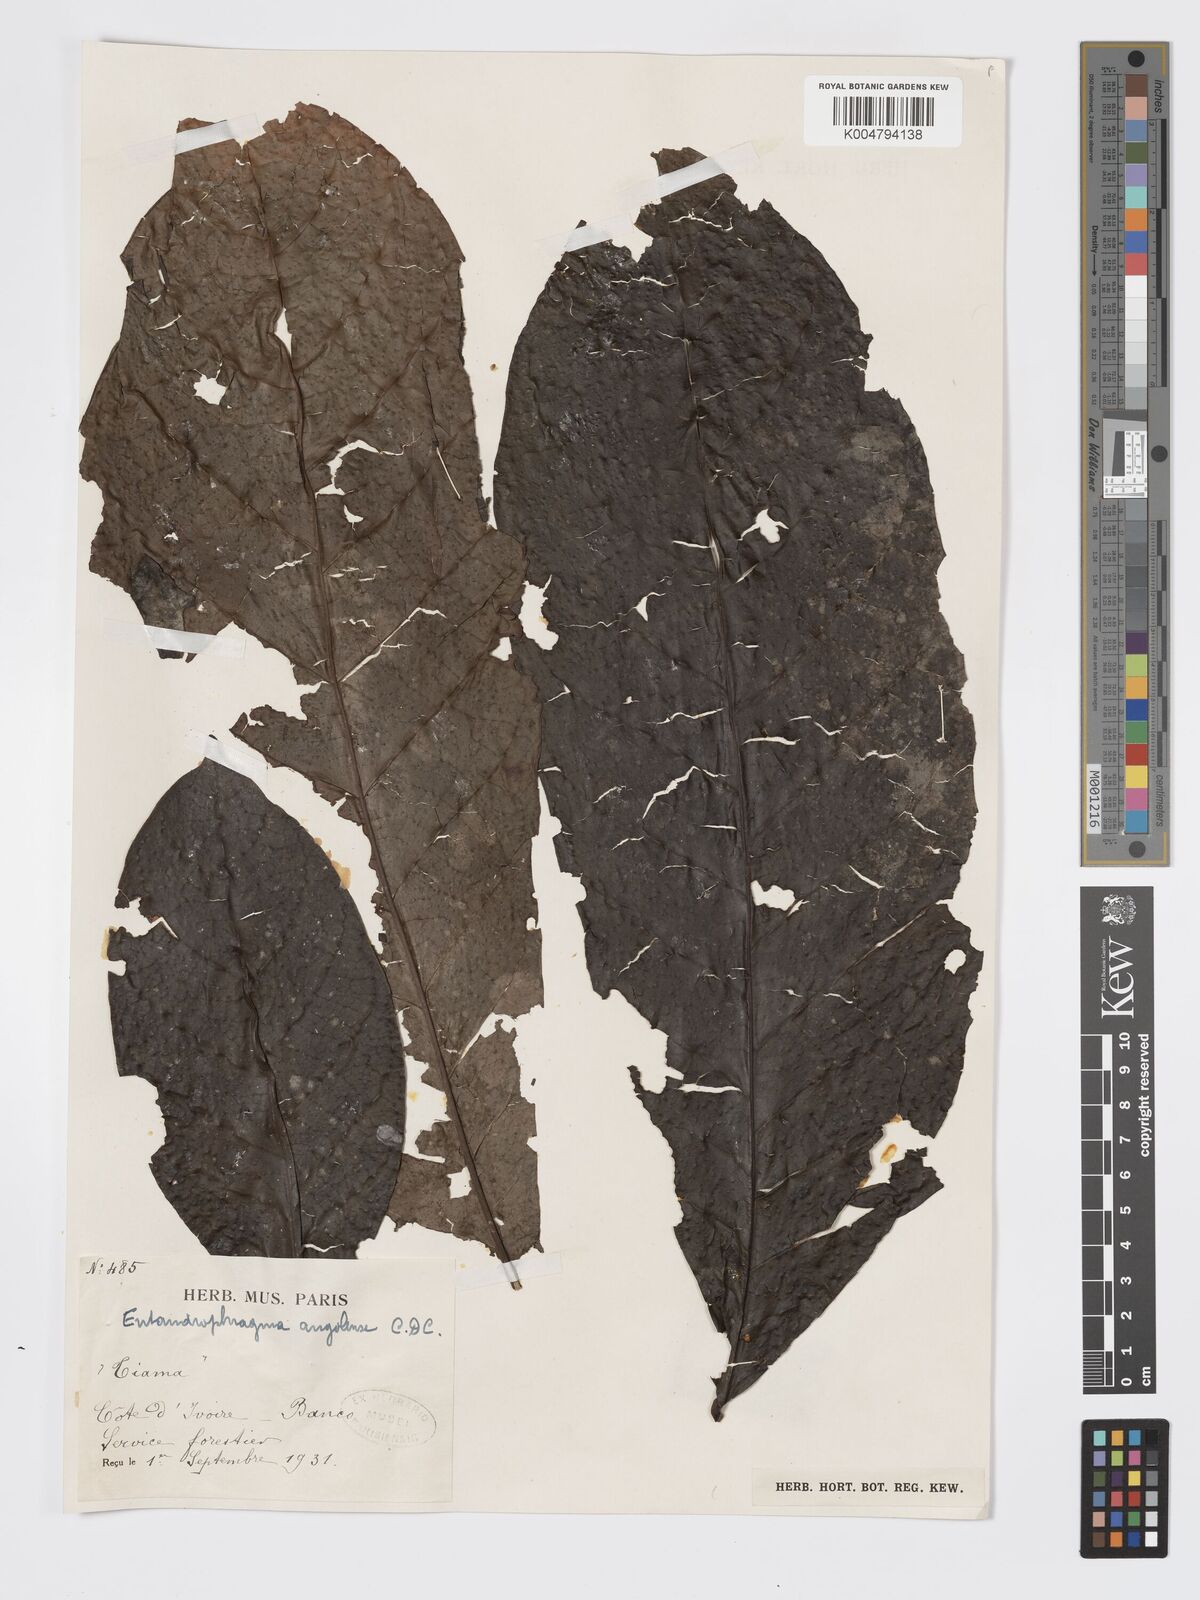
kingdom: Plantae
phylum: Tracheophyta
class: Magnoliopsida
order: Sapindales
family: Meliaceae
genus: Entandrophragma
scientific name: Entandrophragma angolense
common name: African mahogany
